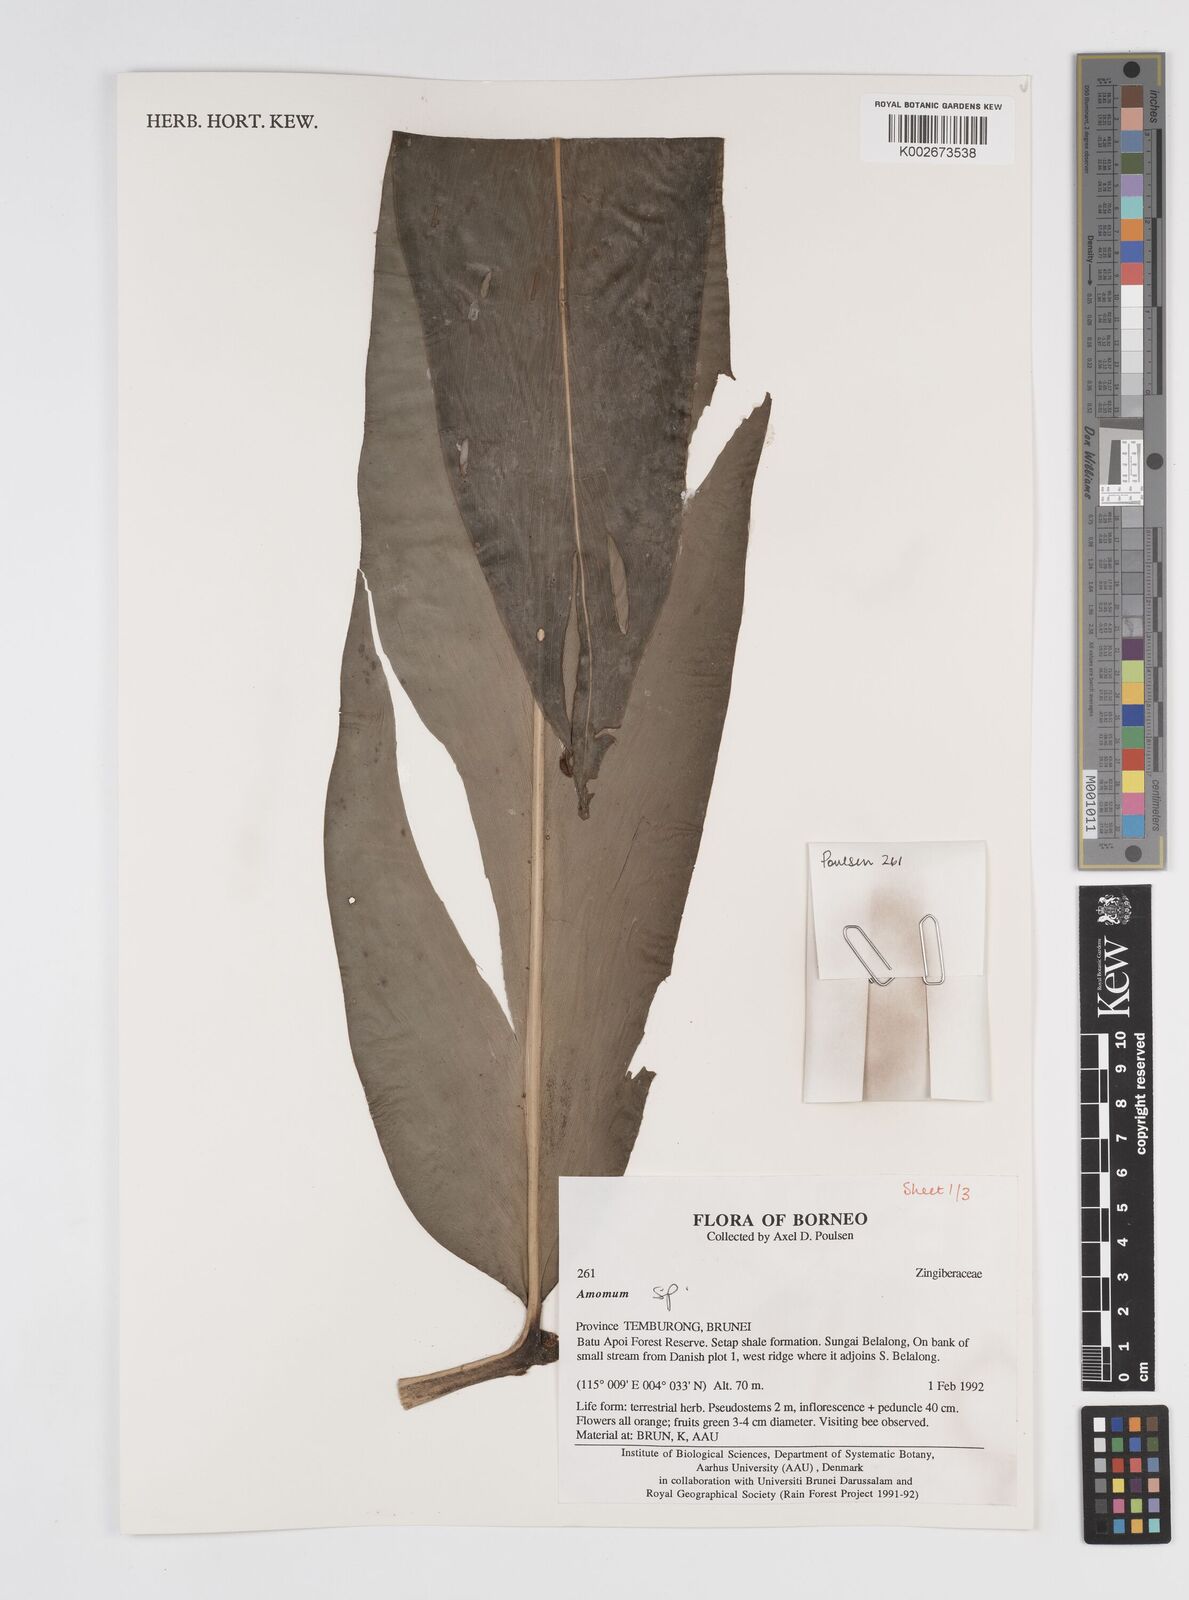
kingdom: Plantae
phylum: Tracheophyta
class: Liliopsida
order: Zingiberales
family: Zingiberaceae
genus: Amomum
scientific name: Amomum
